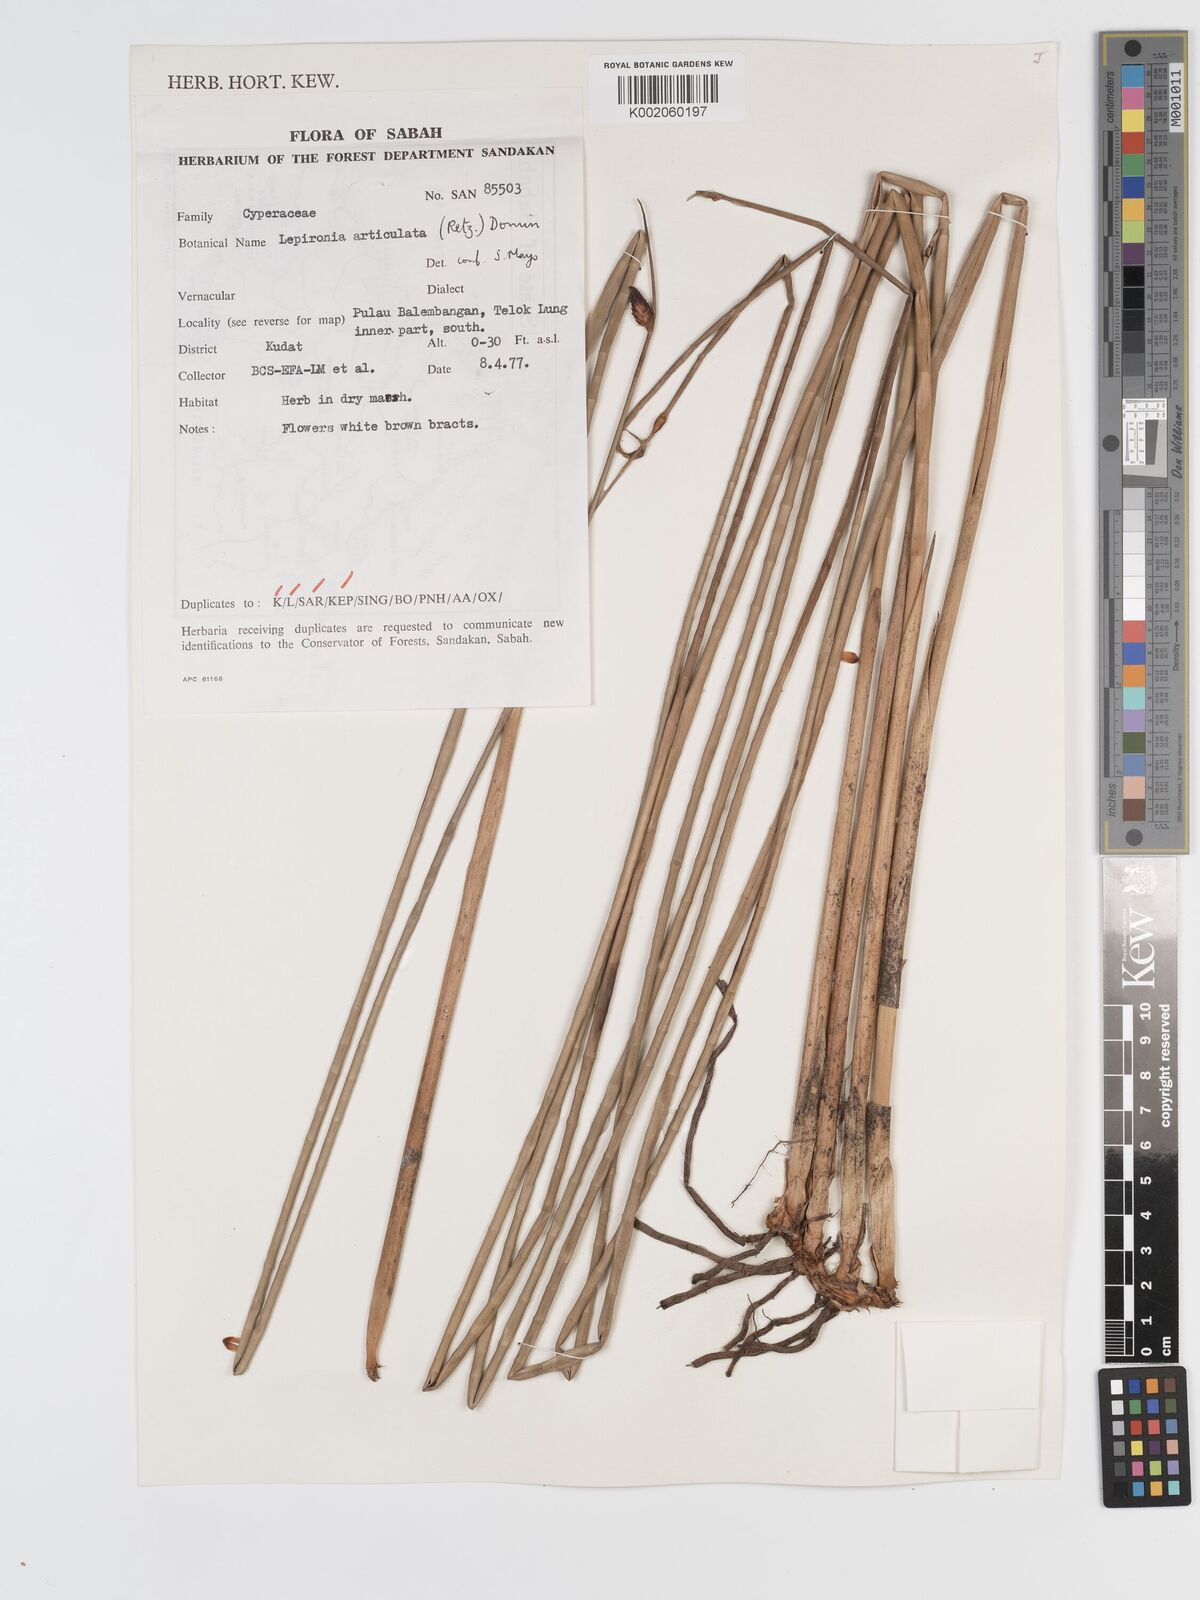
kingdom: Plantae
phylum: Tracheophyta
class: Liliopsida
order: Poales
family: Cyperaceae
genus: Lepironia
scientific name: Lepironia articulata
